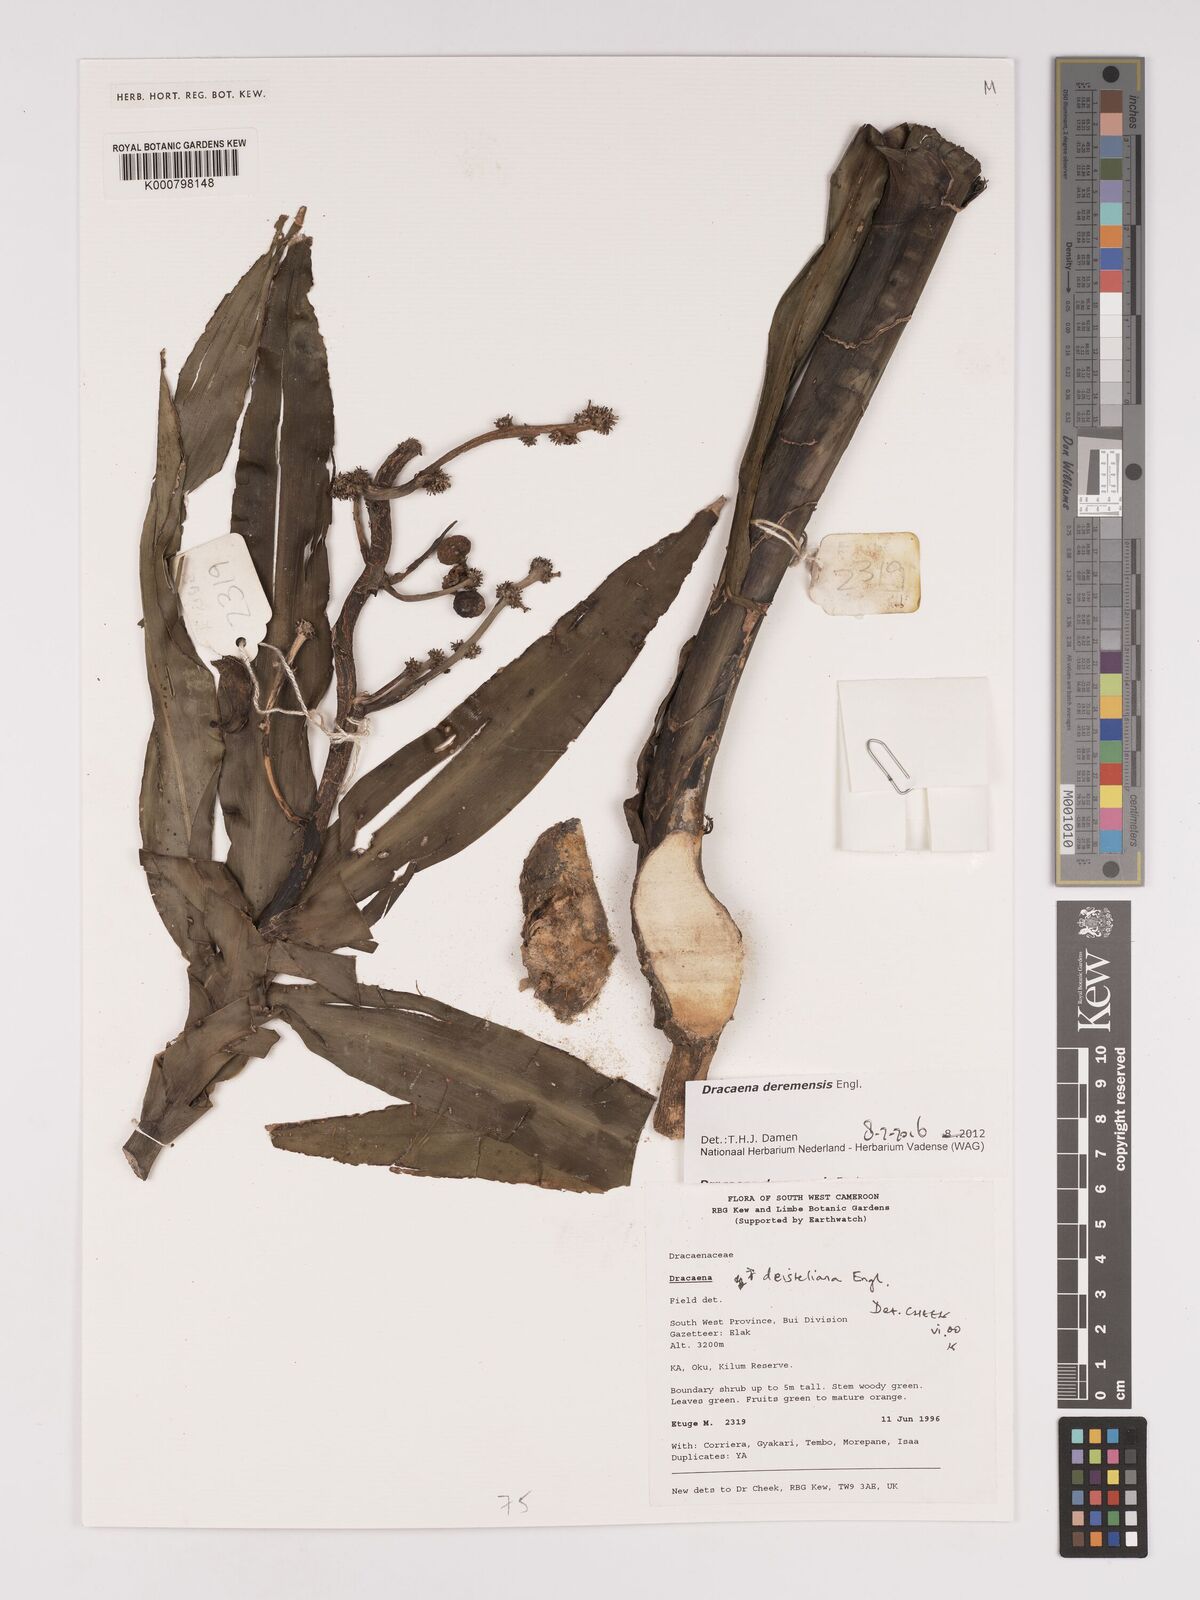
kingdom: Plantae
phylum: Tracheophyta
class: Liliopsida
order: Asparagales
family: Asparagaceae
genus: Dracaena
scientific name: Dracaena fragrans
